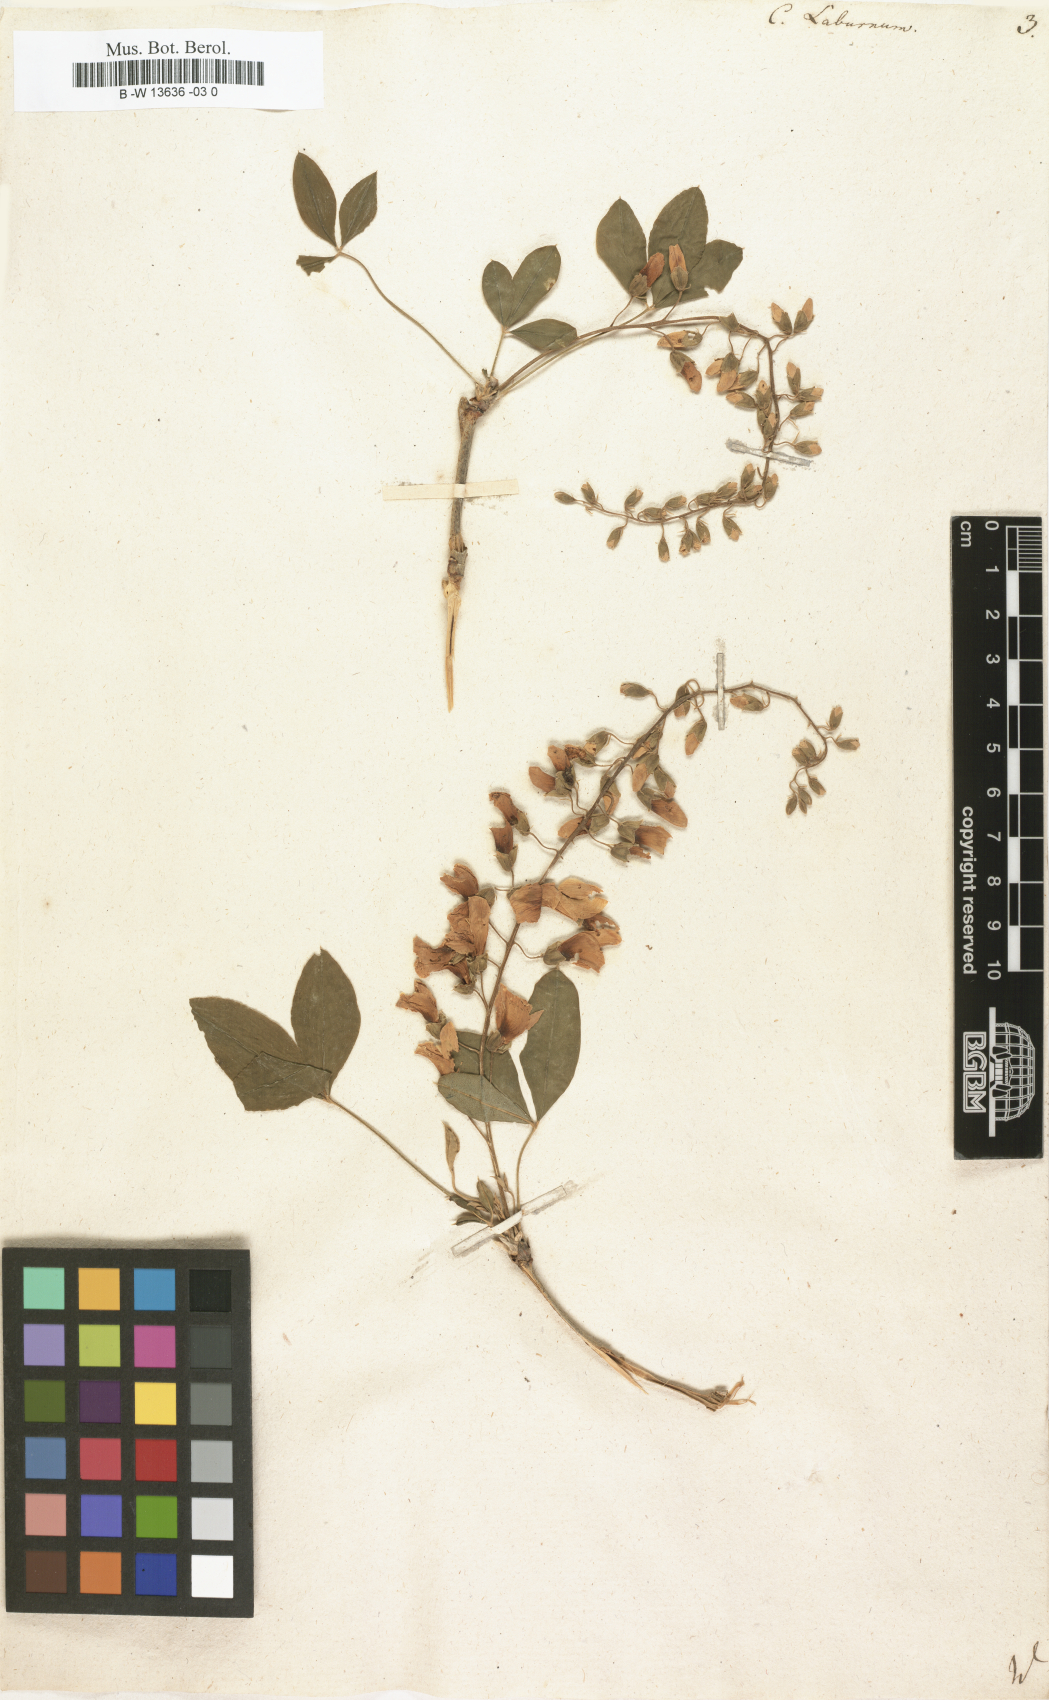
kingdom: Plantae
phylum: Tracheophyta
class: Magnoliopsida
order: Fabales
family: Fabaceae
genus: Laburnum
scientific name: Laburnum anagyroides
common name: Laburnum
